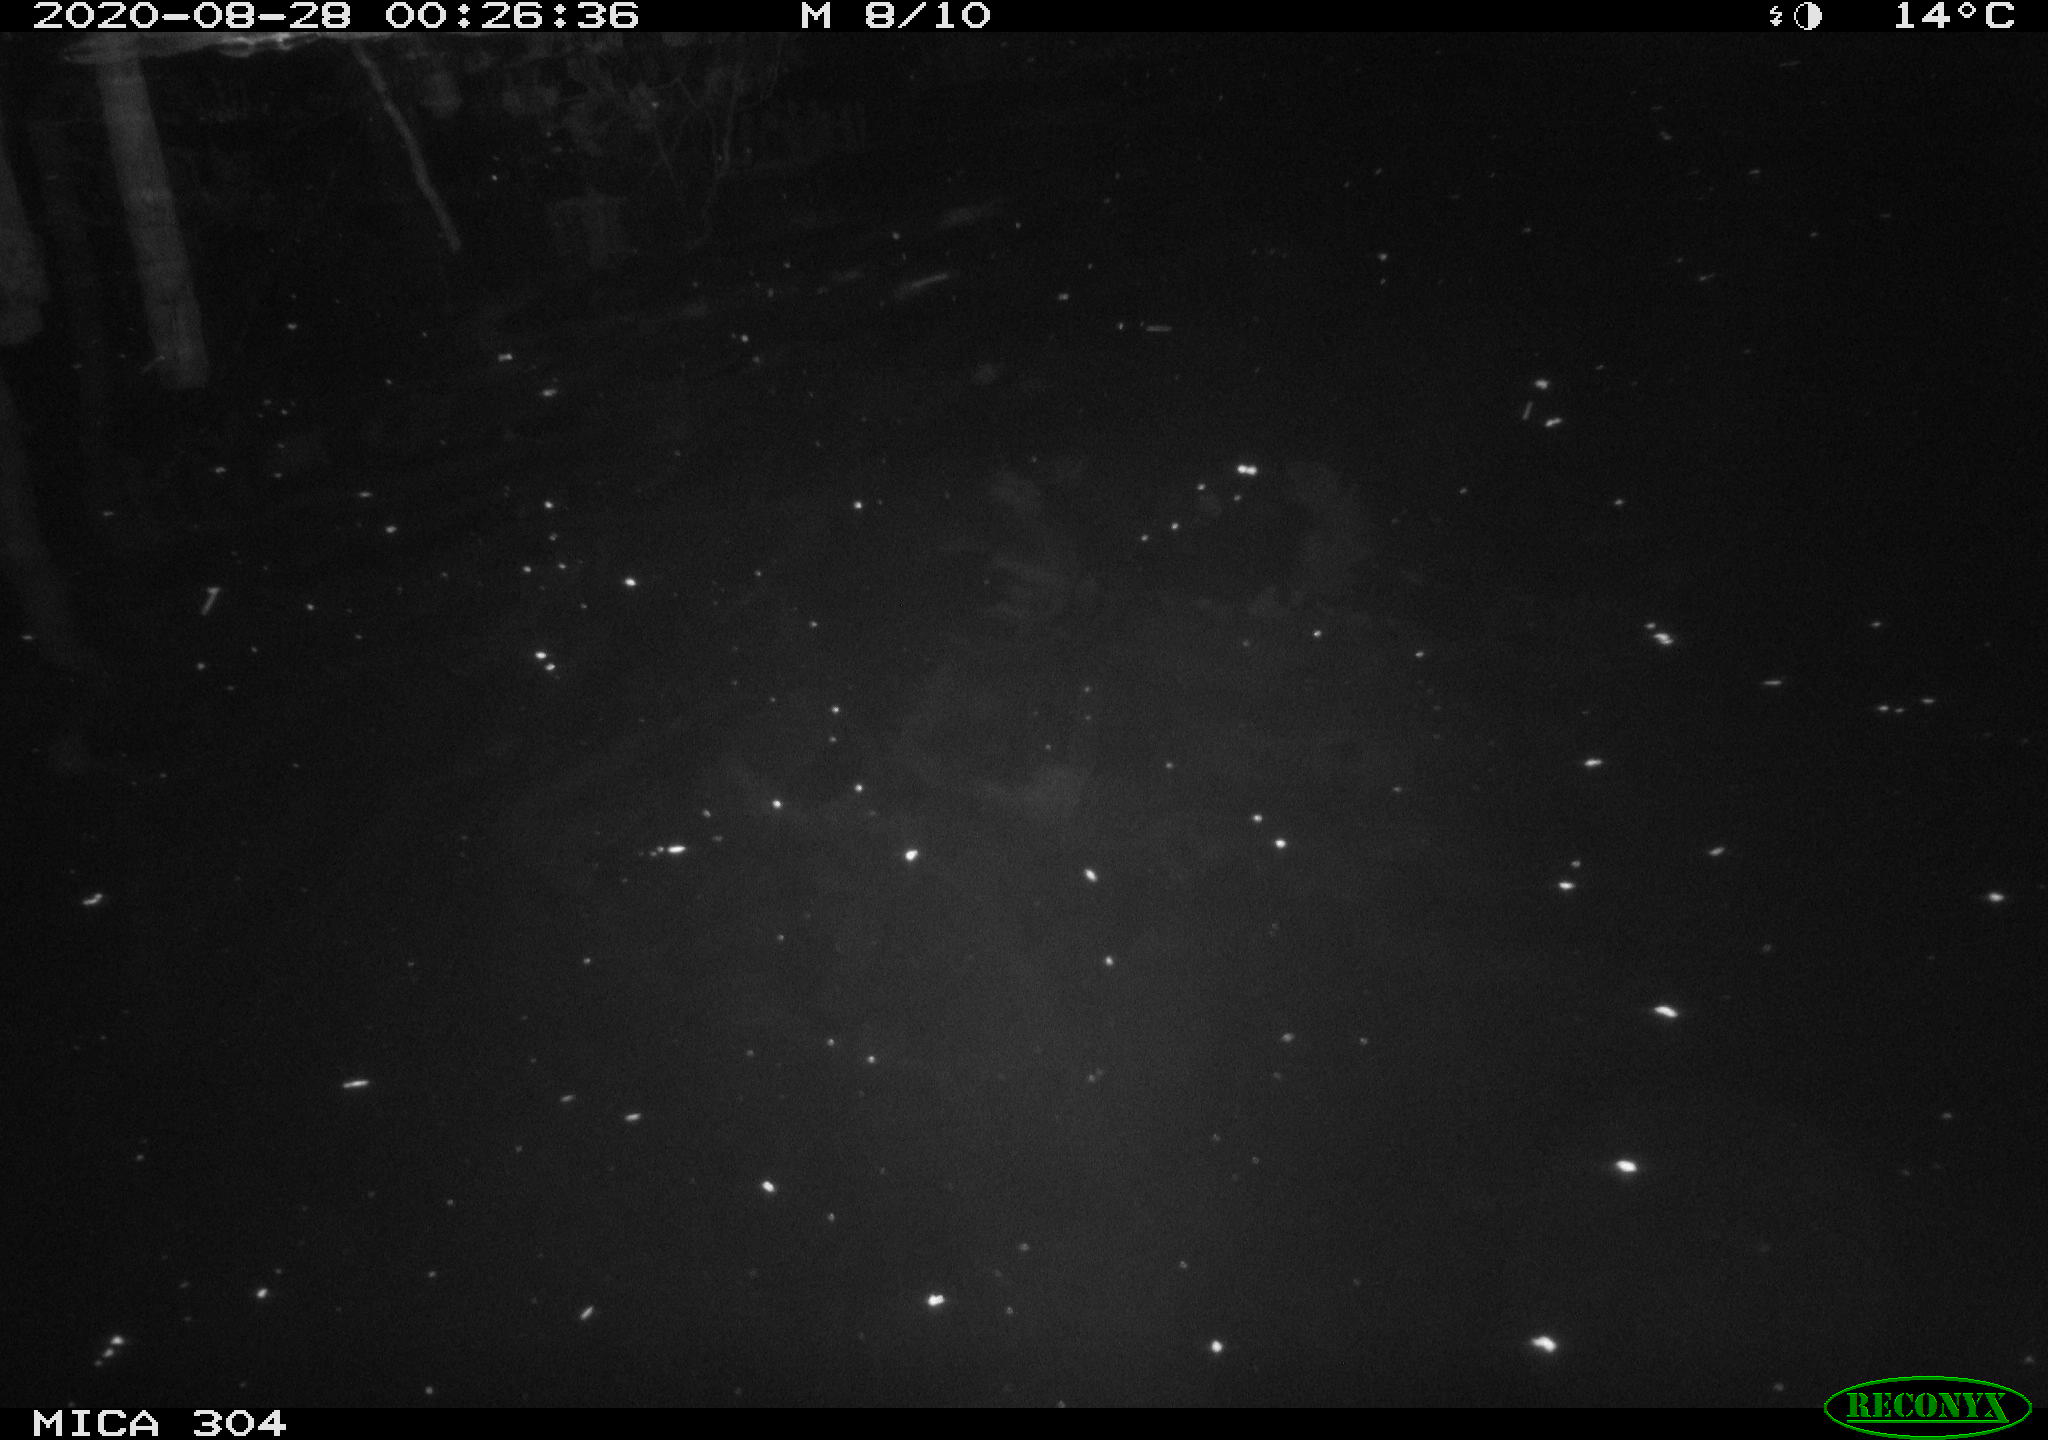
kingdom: Animalia
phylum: Chordata
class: Mammalia
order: Rodentia
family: Cricetidae
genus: Ondatra
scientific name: Ondatra zibethicus
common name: Muskrat
